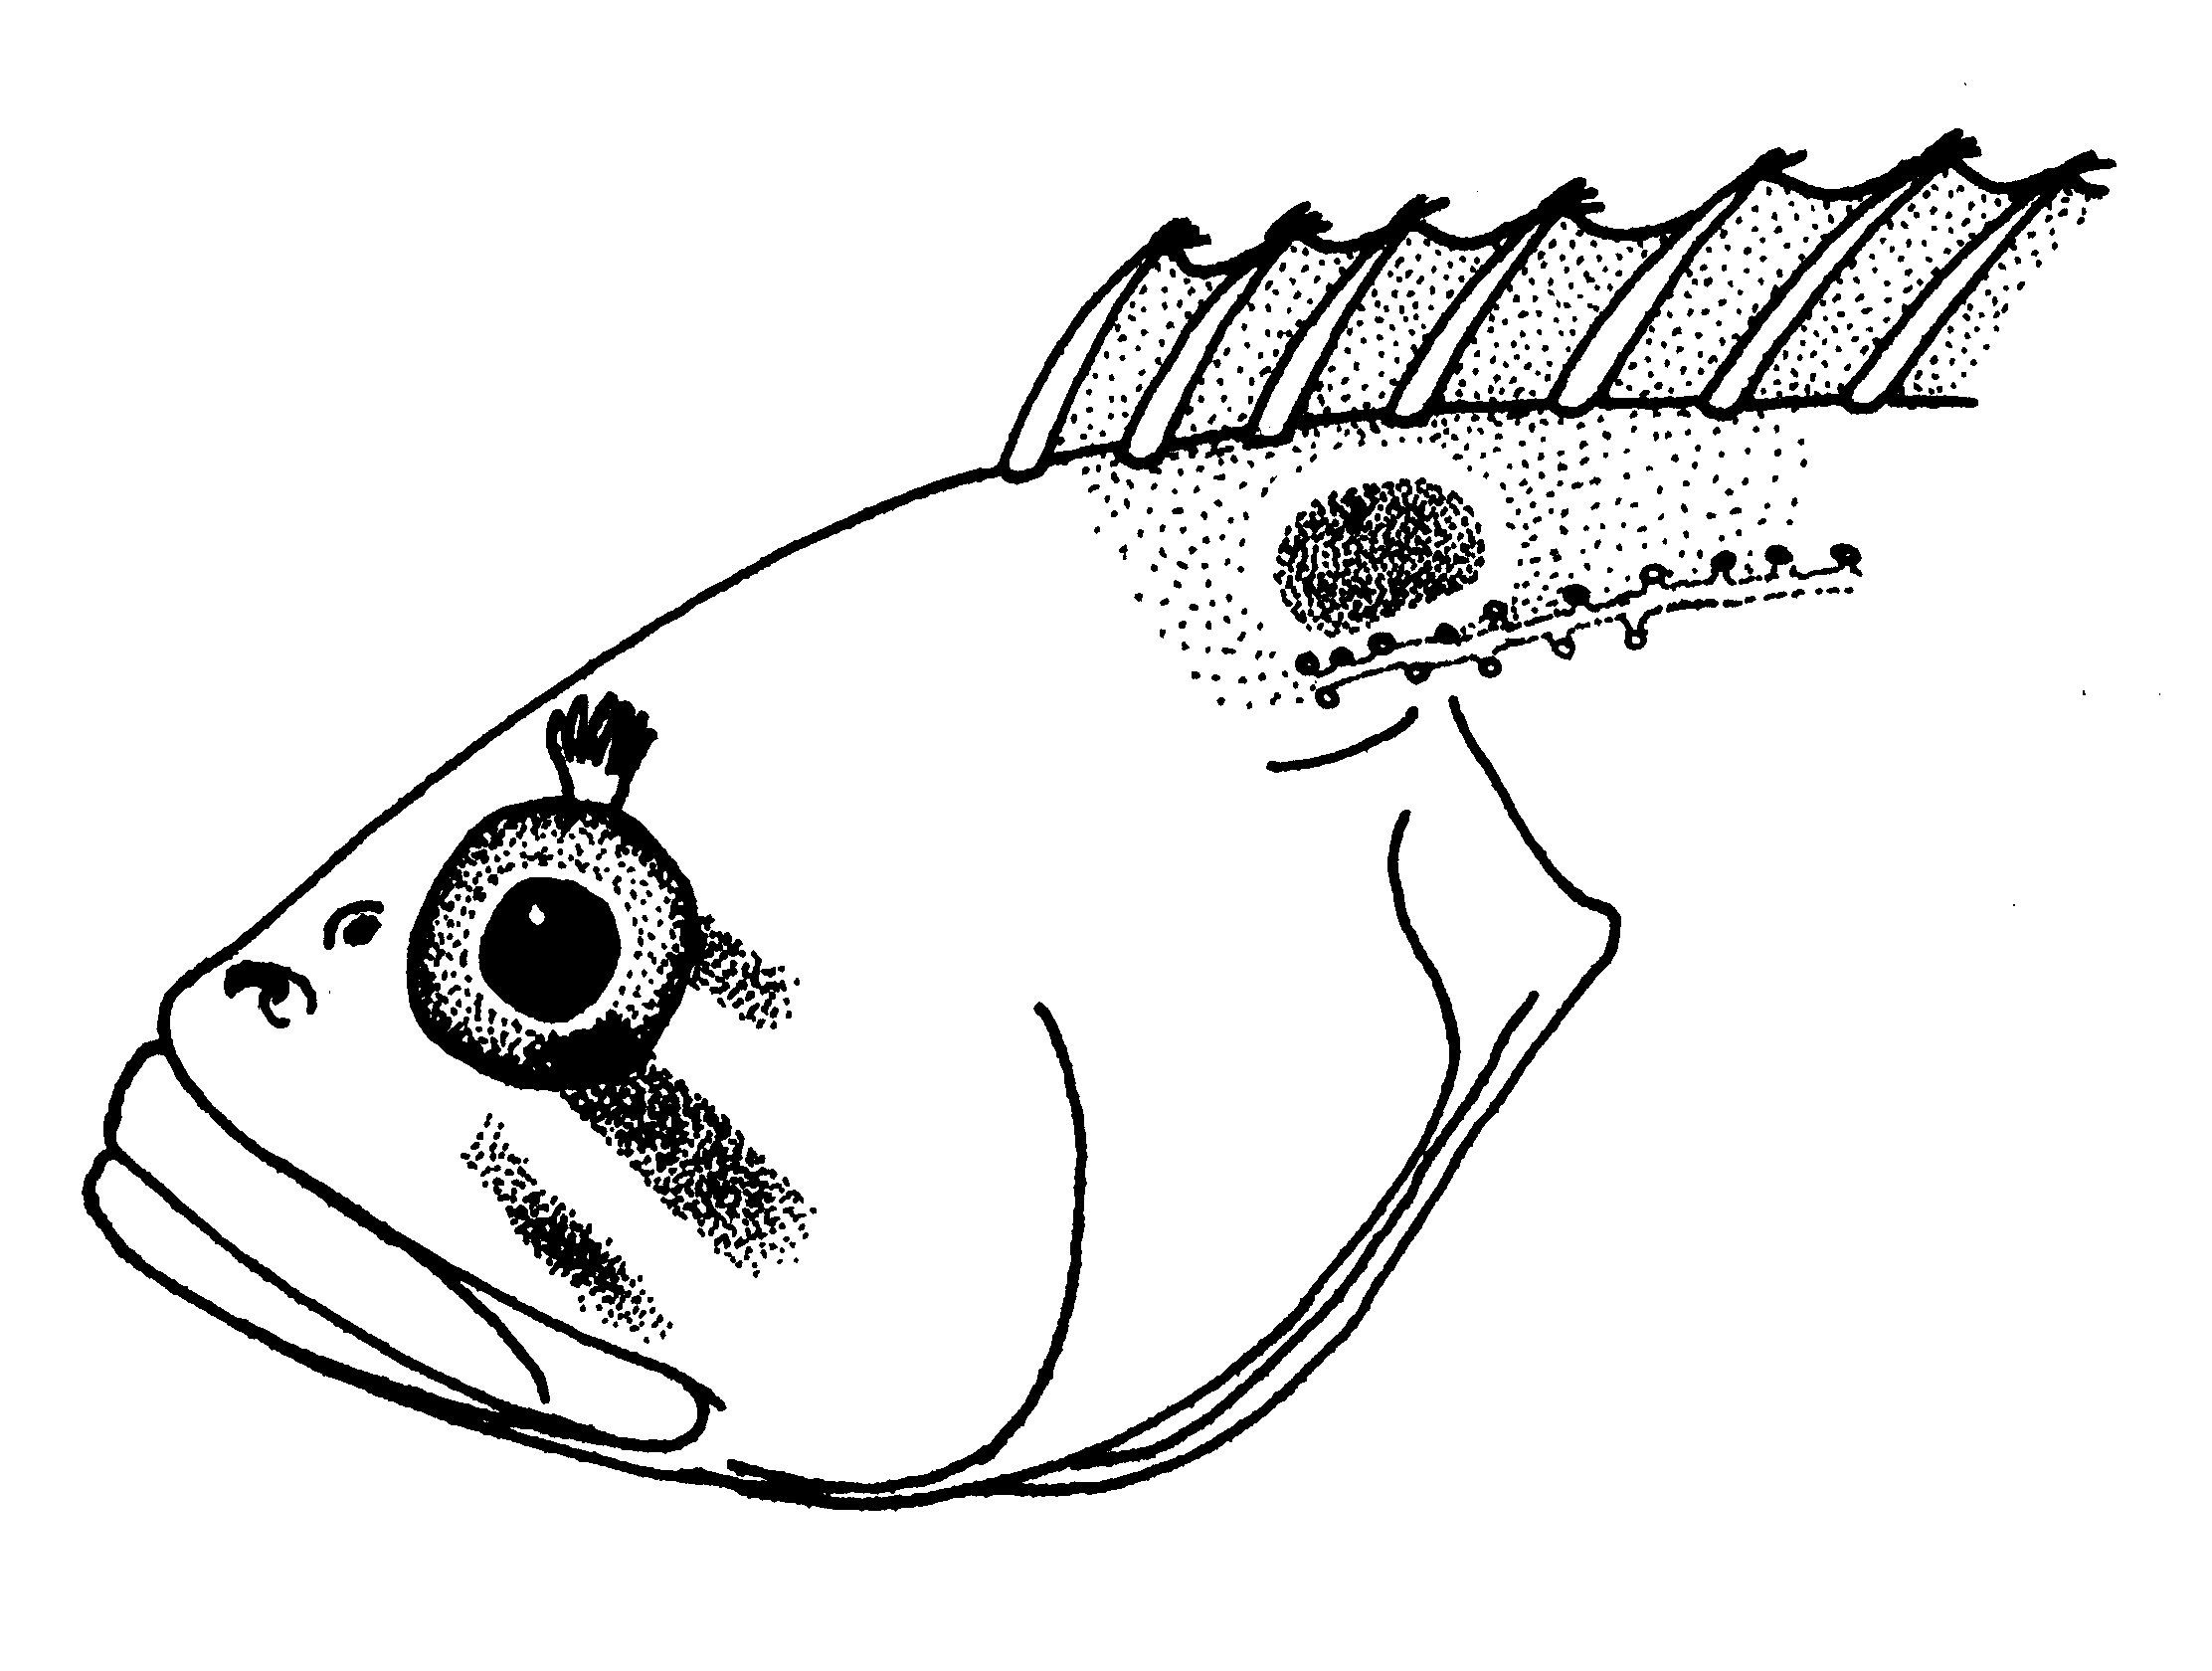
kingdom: Animalia
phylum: Chordata
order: Perciformes
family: Clinidae
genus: Clinus
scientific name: Clinus acuminatus
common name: Sad klipfish
